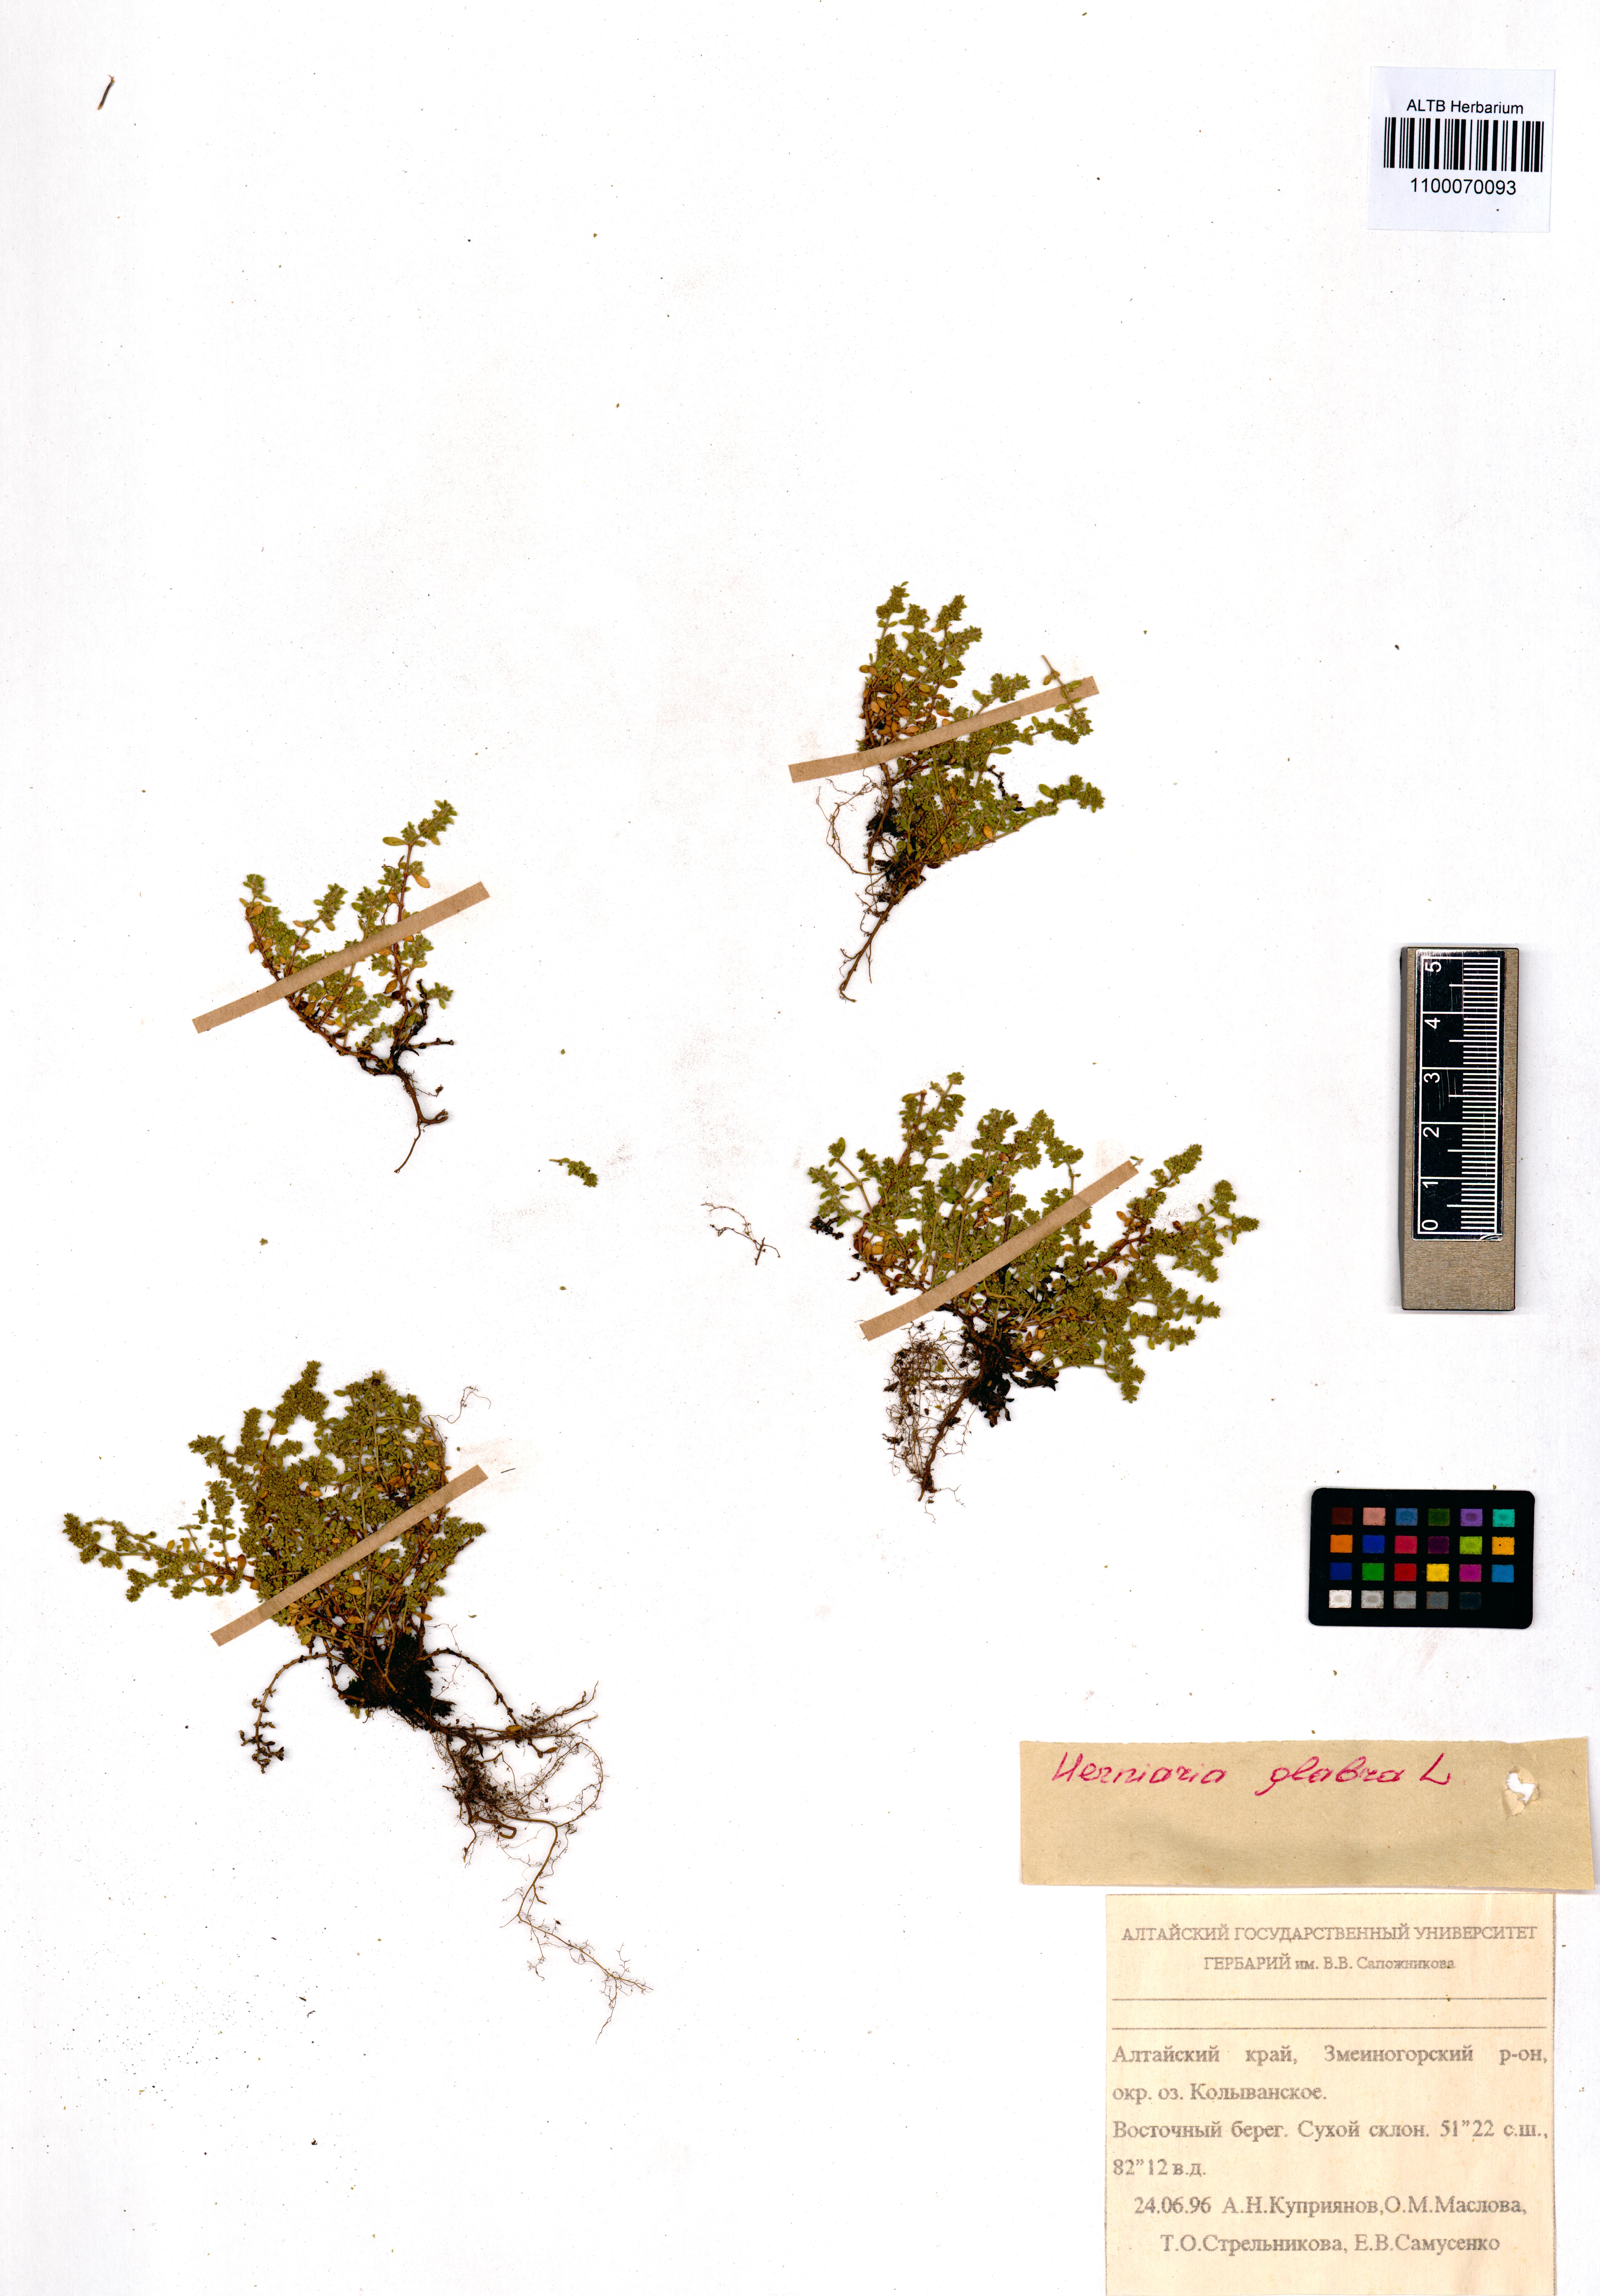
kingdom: Plantae
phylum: Tracheophyta
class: Magnoliopsida
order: Caryophyllales
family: Caryophyllaceae
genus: Herniaria
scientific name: Herniaria glabra
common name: Smooth rupturewort
